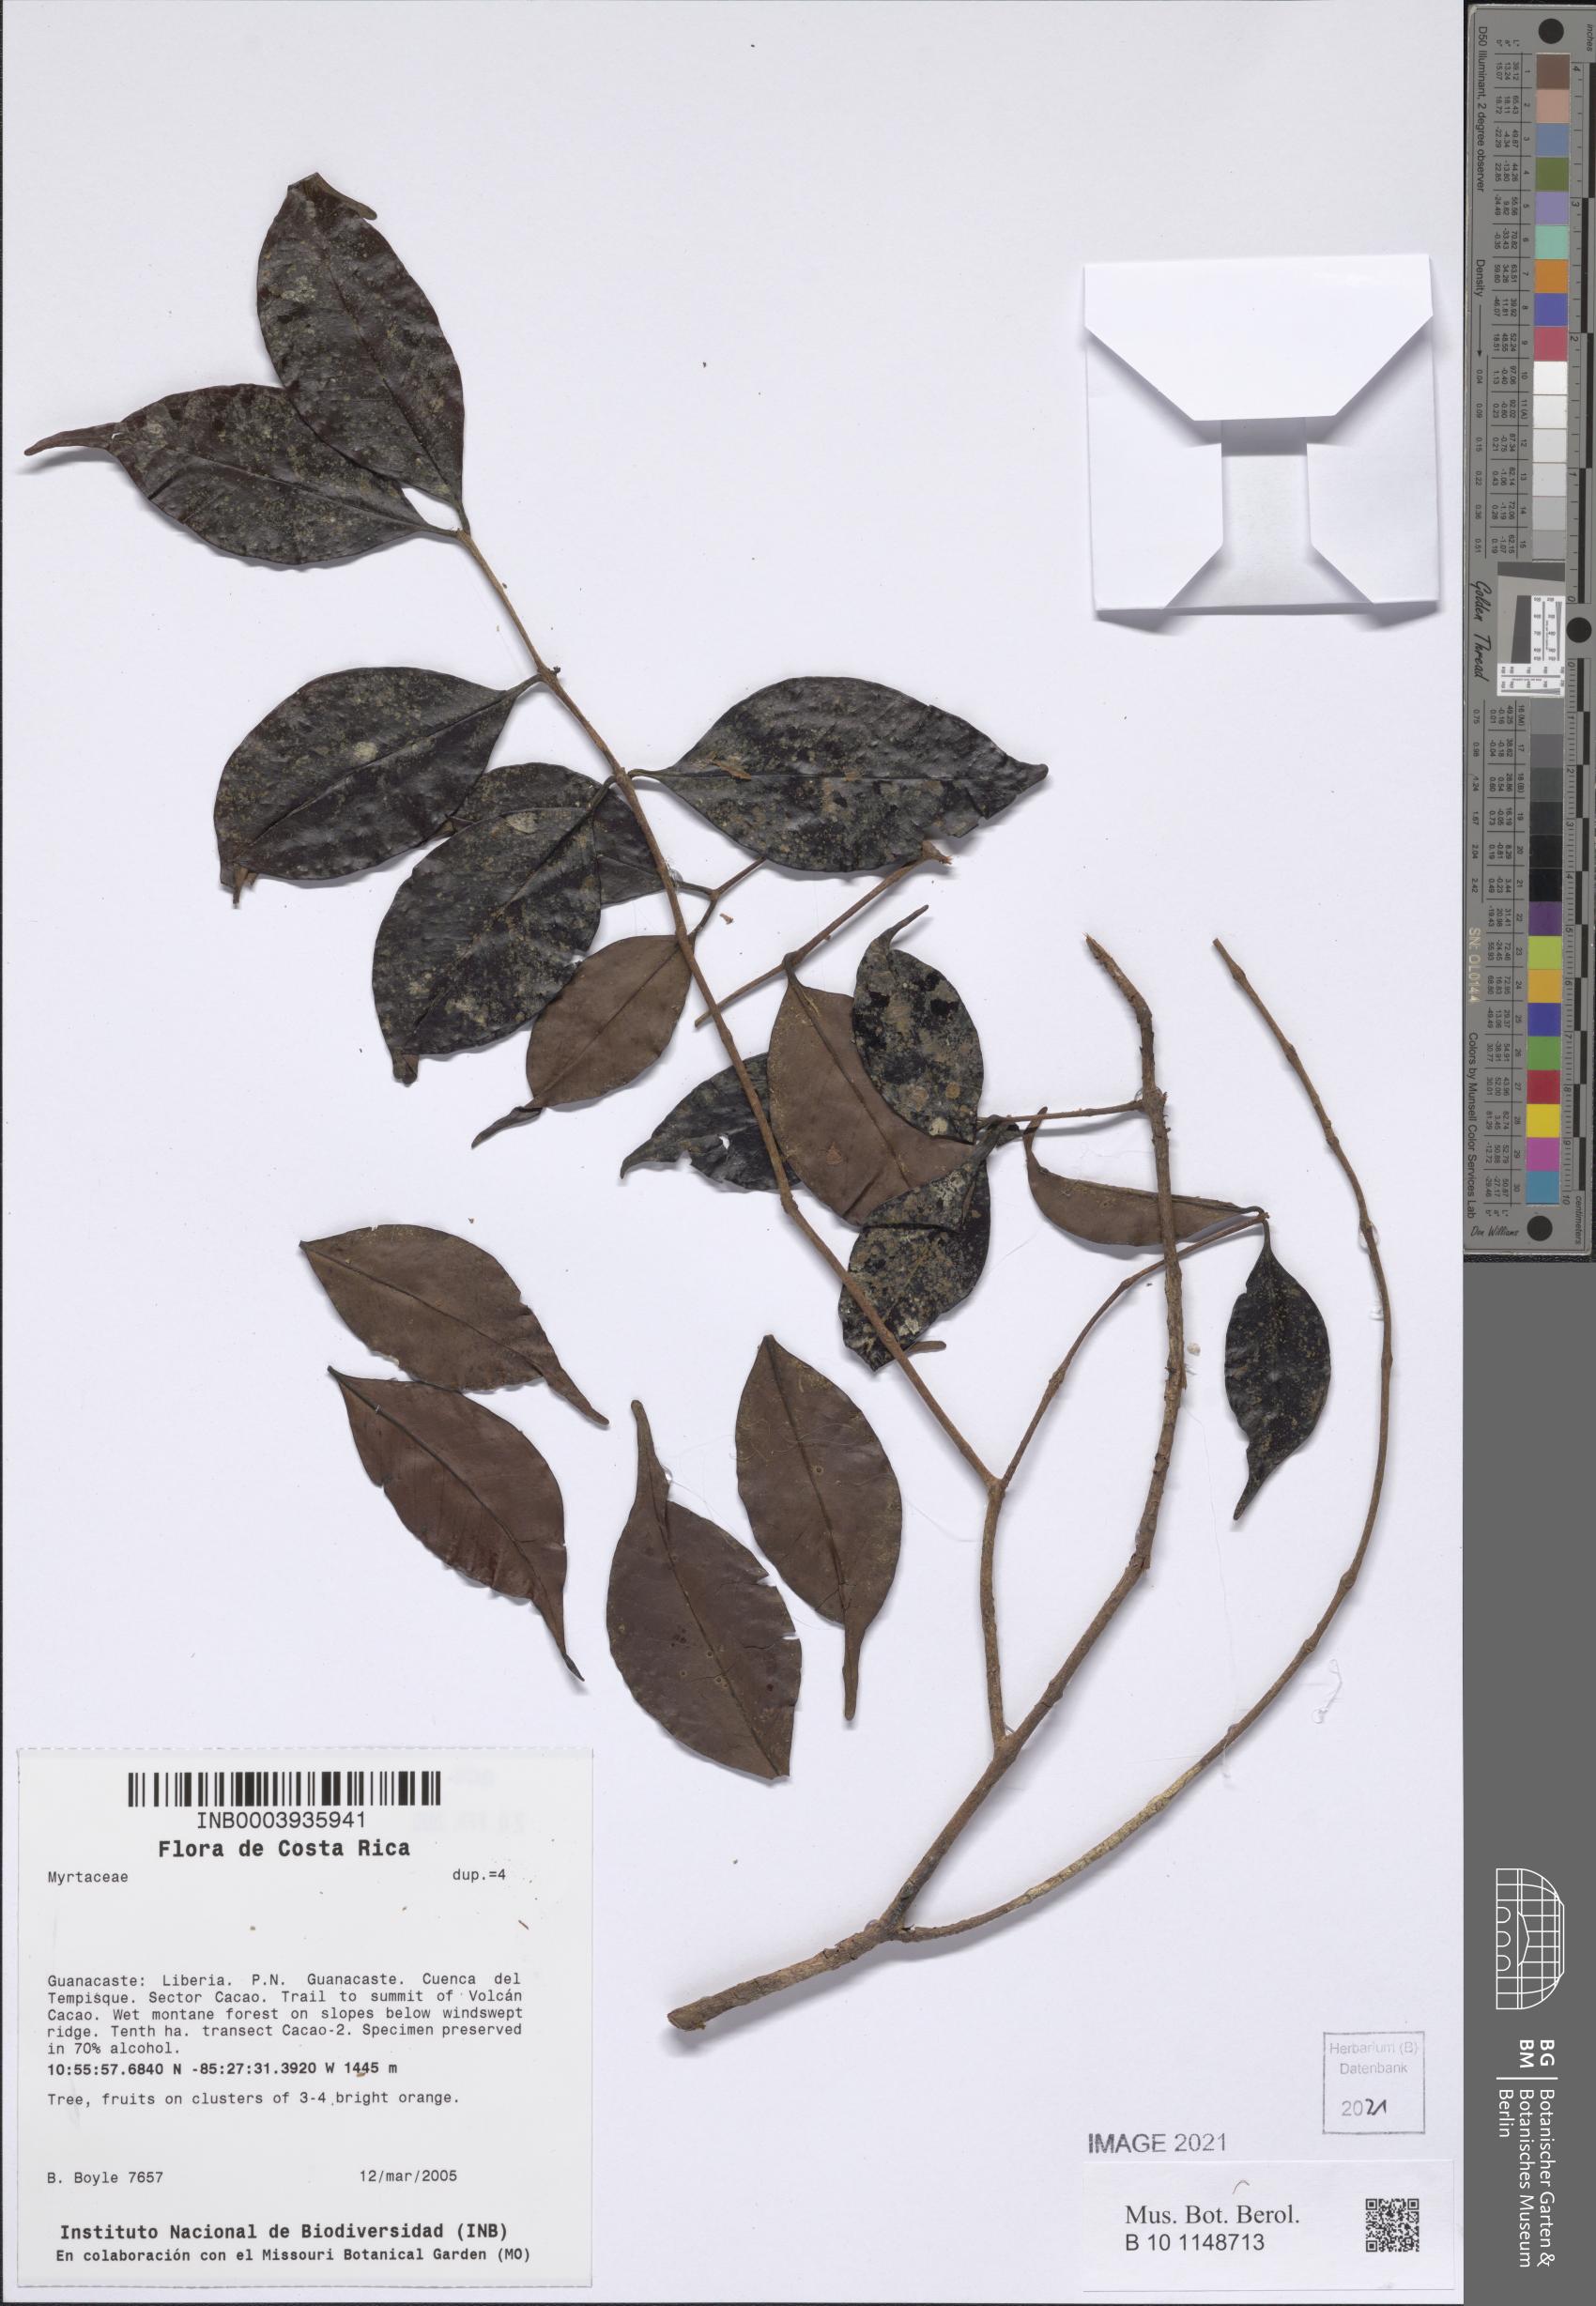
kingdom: Plantae
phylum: Tracheophyta
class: Magnoliopsida
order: Myrtales
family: Myrtaceae
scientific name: Myrtaceae
